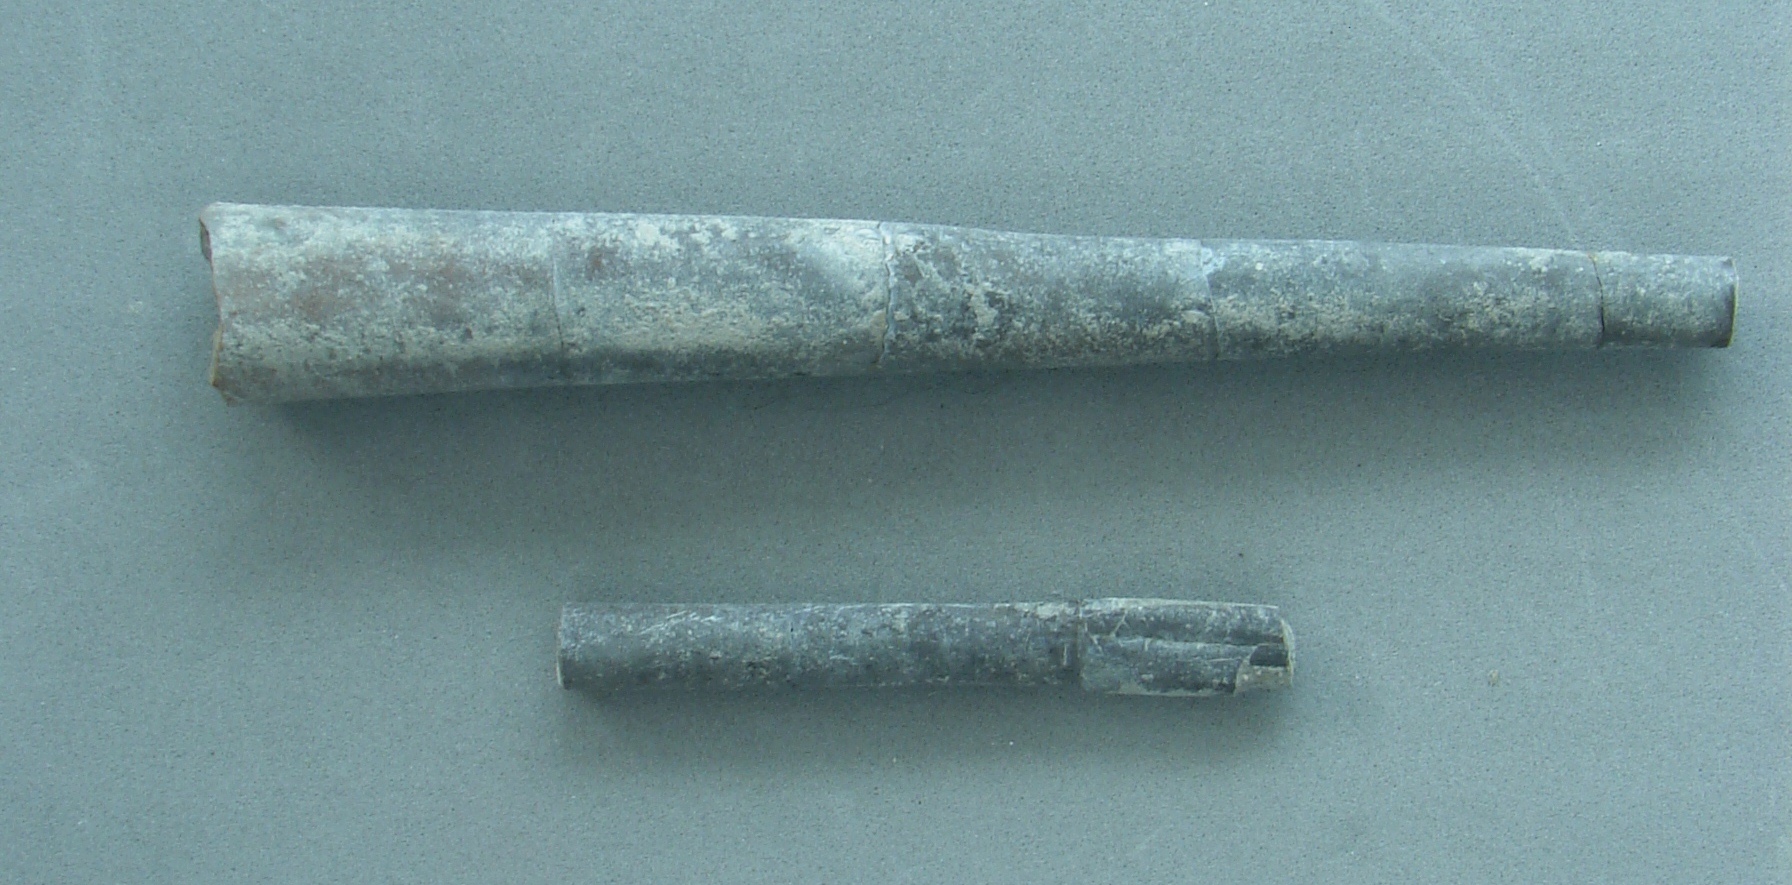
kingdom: Animalia
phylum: Mollusca
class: Cephalopoda
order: Belemnitida
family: Megateuthididae
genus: Dactyloteuthis
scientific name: Dactyloteuthis semistriata
